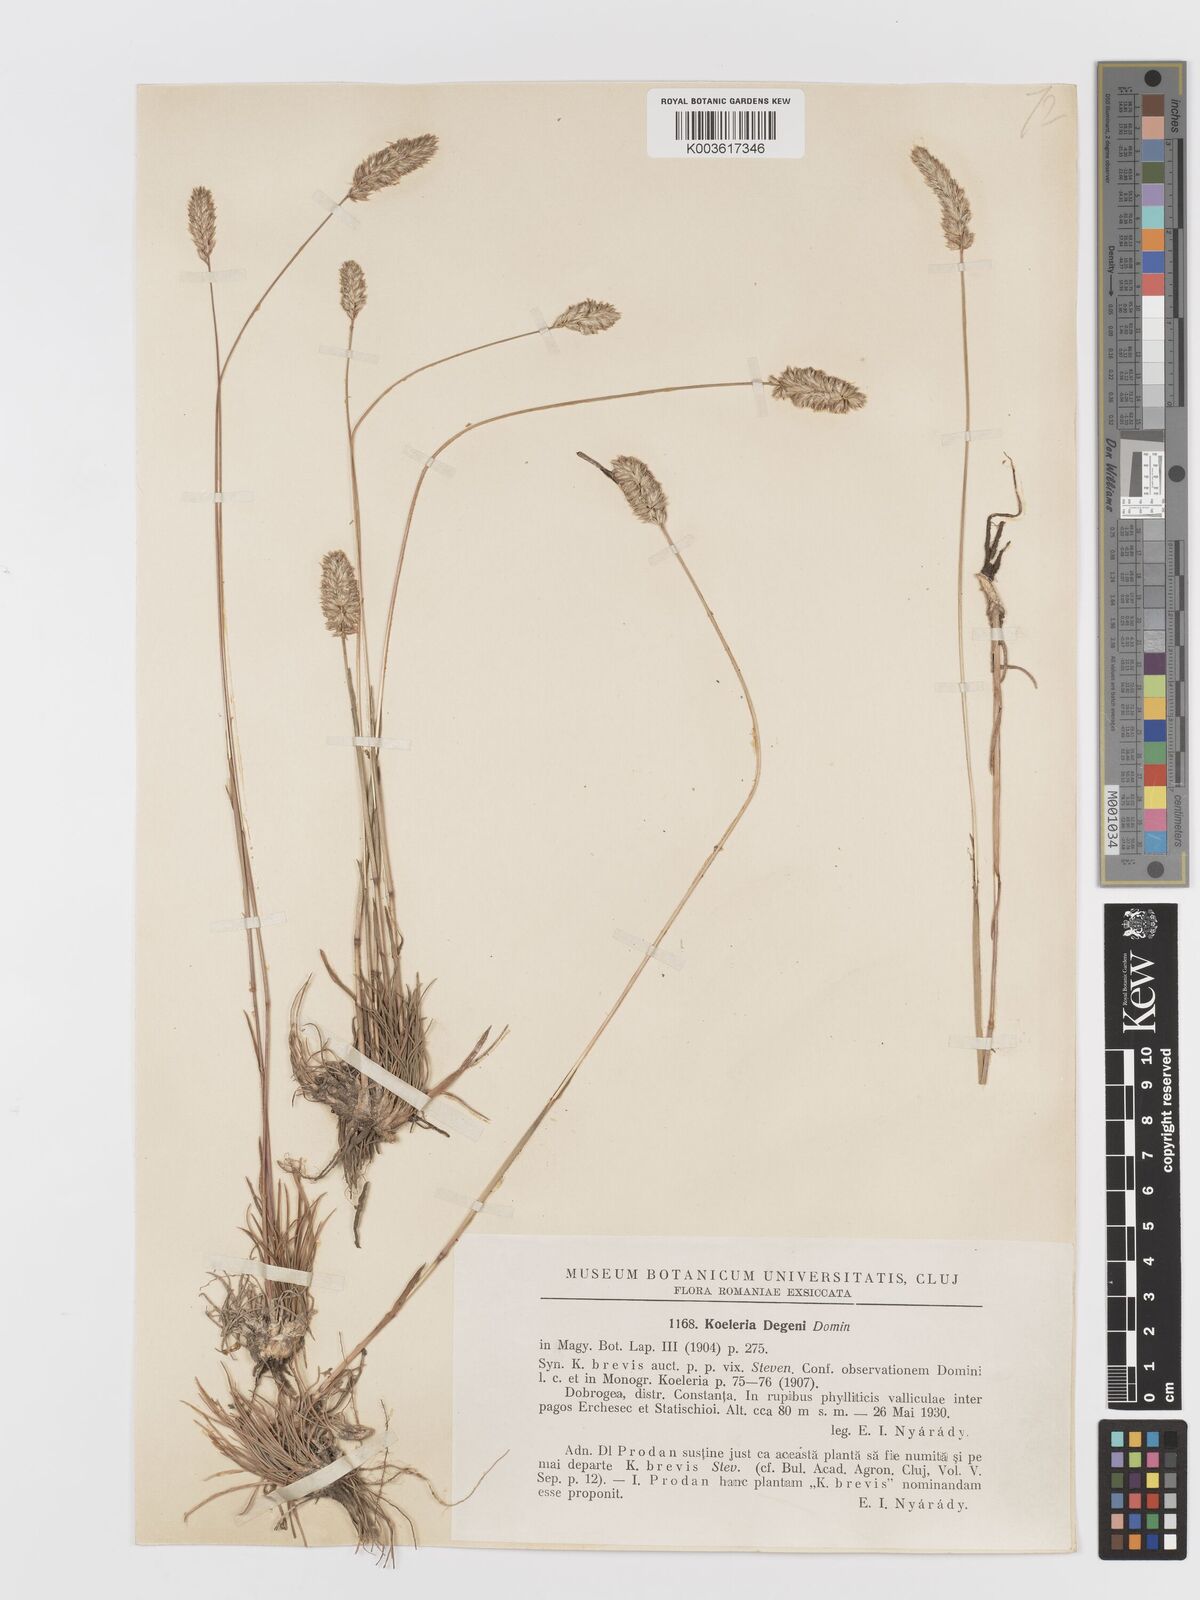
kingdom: Plantae
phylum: Tracheophyta
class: Liliopsida
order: Poales
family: Poaceae
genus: Sphenopholis
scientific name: Sphenopholis obtusata
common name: Prairie grass
